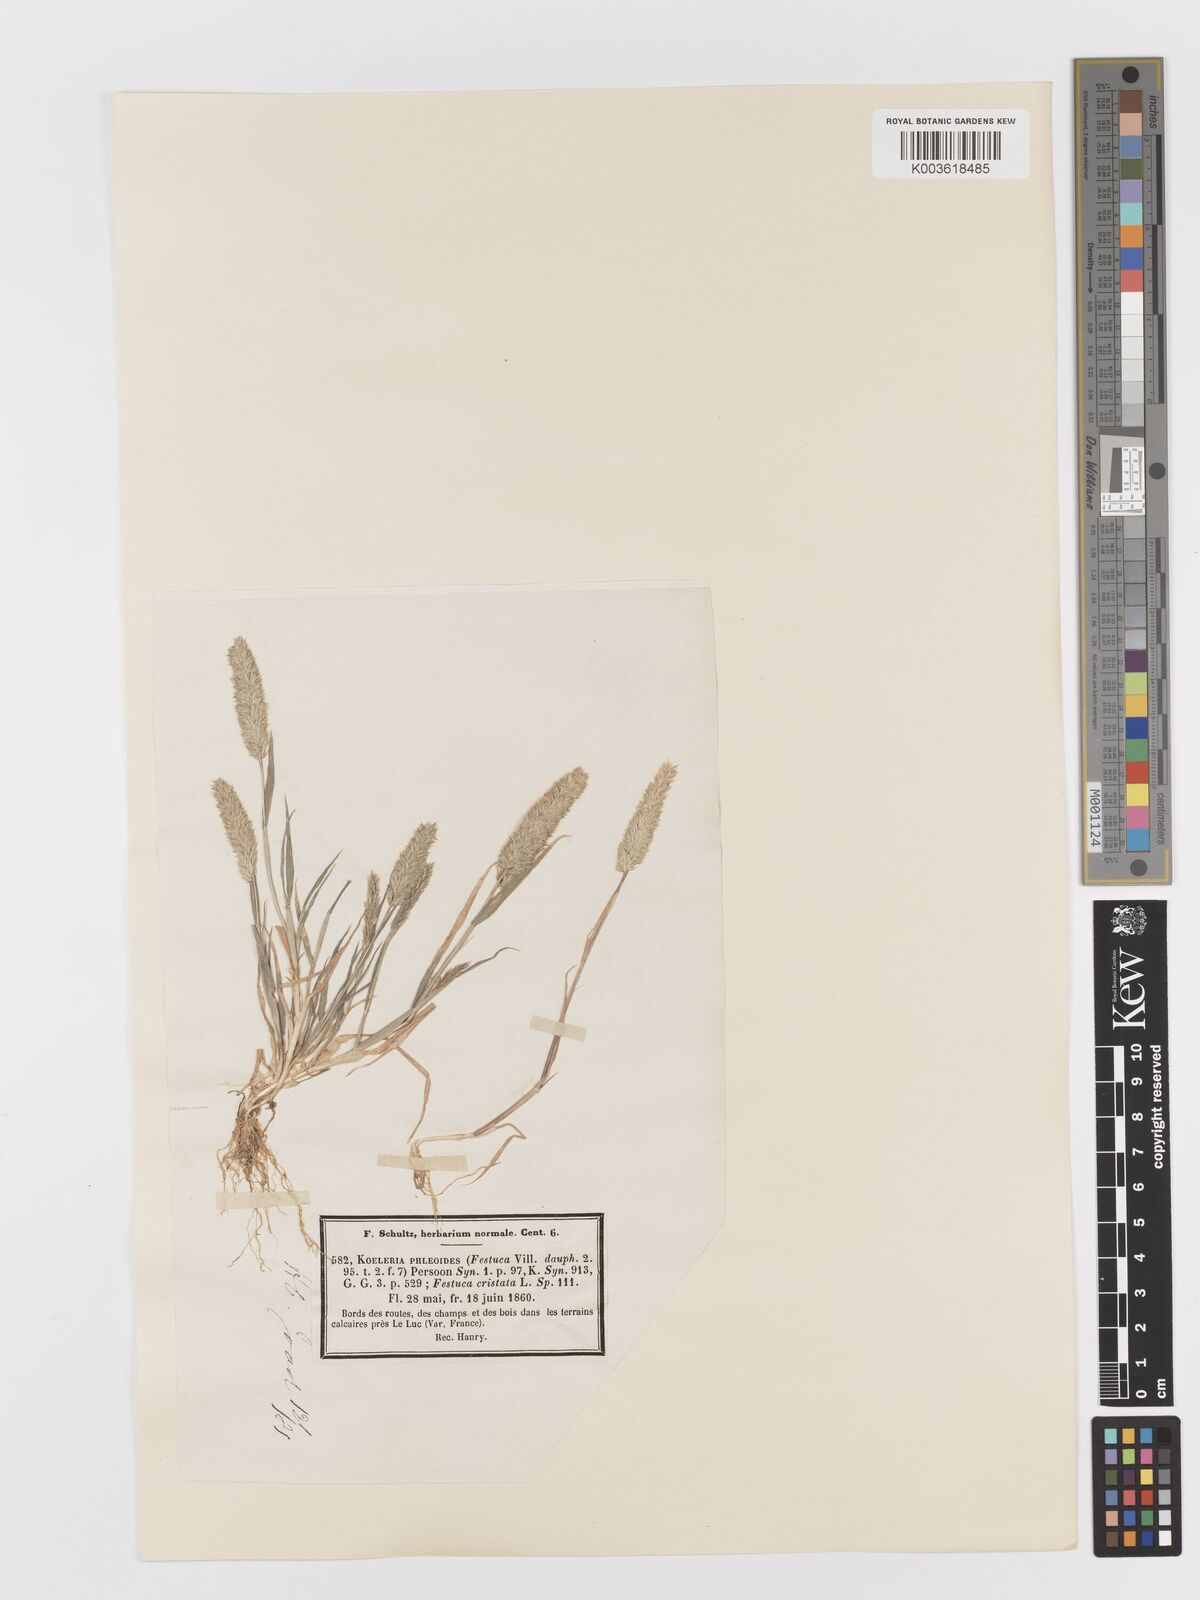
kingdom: Plantae
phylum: Tracheophyta
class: Liliopsida
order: Poales
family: Poaceae
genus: Rostraria
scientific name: Rostraria cristata
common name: Mediterranean hair-grass
